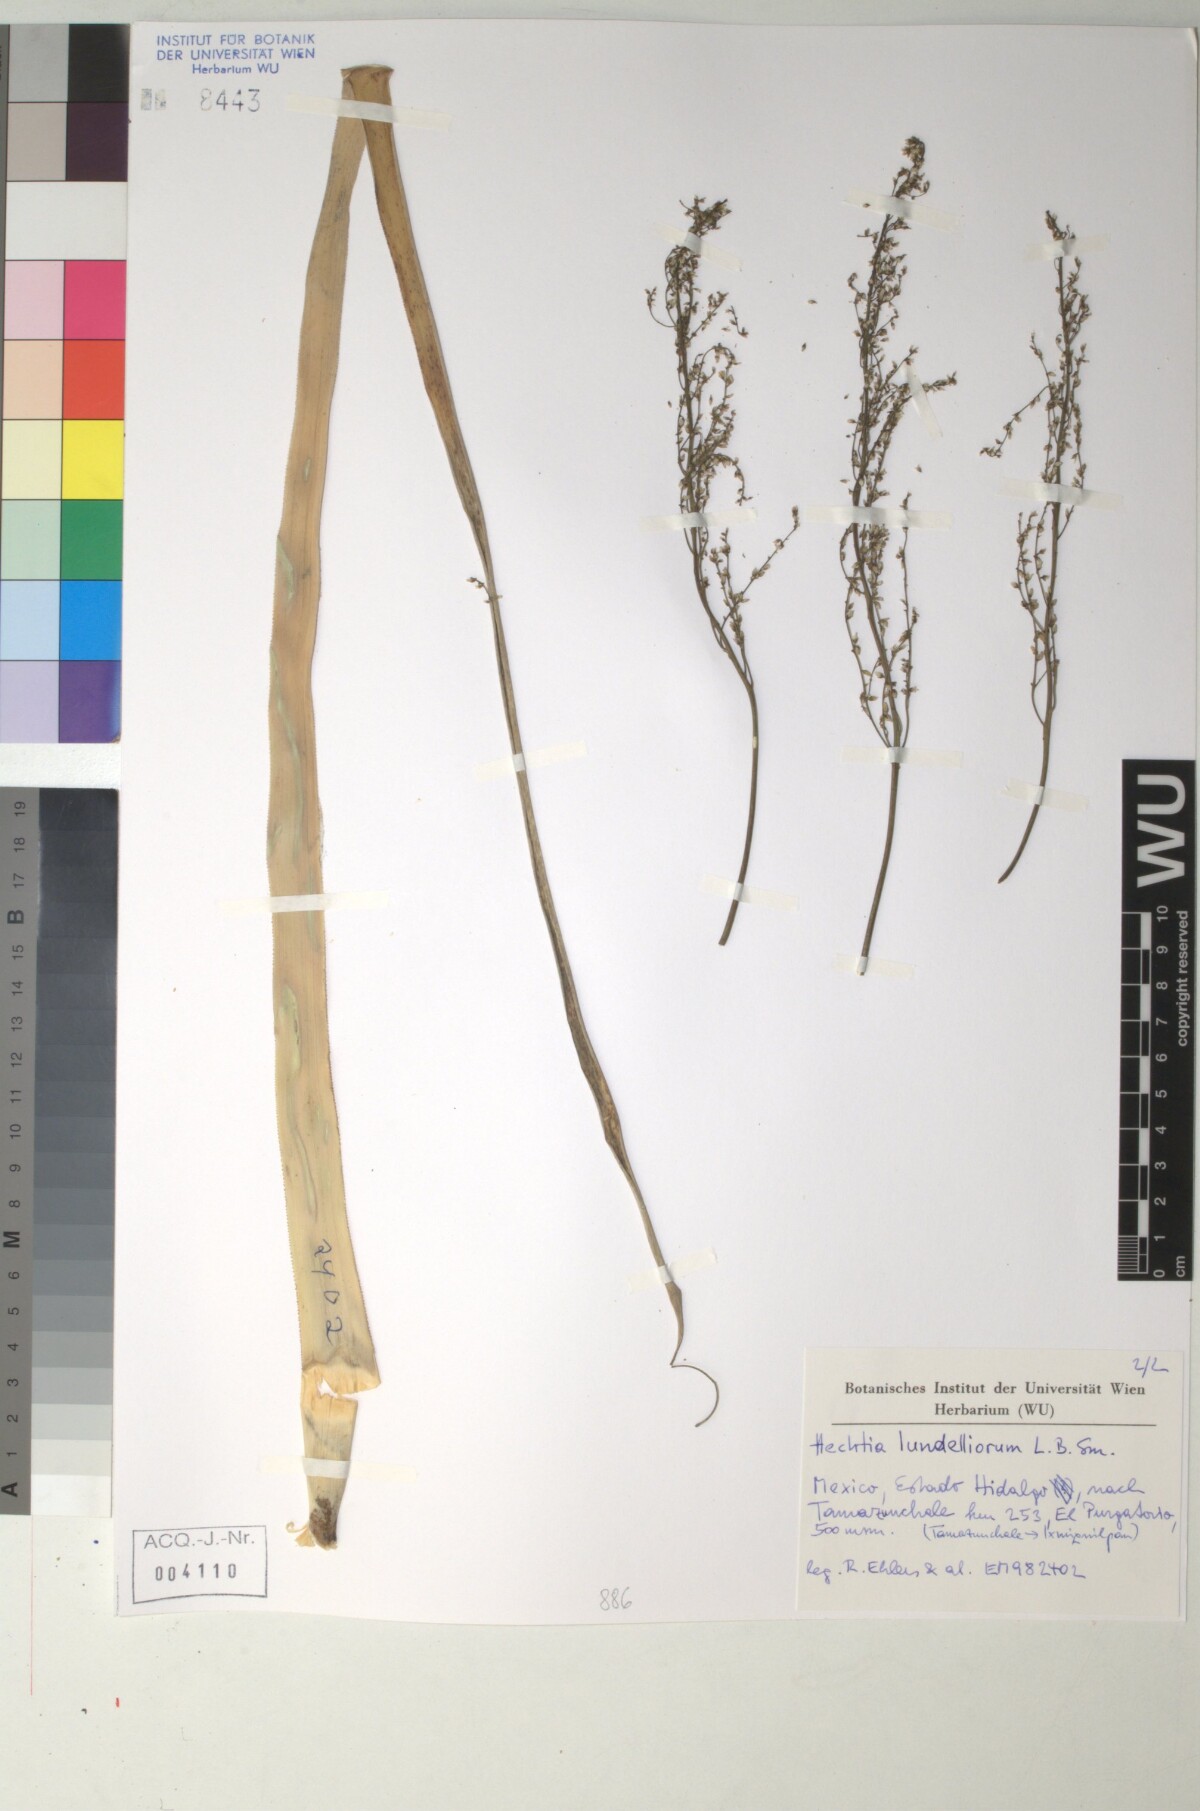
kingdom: Plantae
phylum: Tracheophyta
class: Liliopsida
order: Poales
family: Bromeliaceae
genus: Hechtia
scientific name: Hechtia
